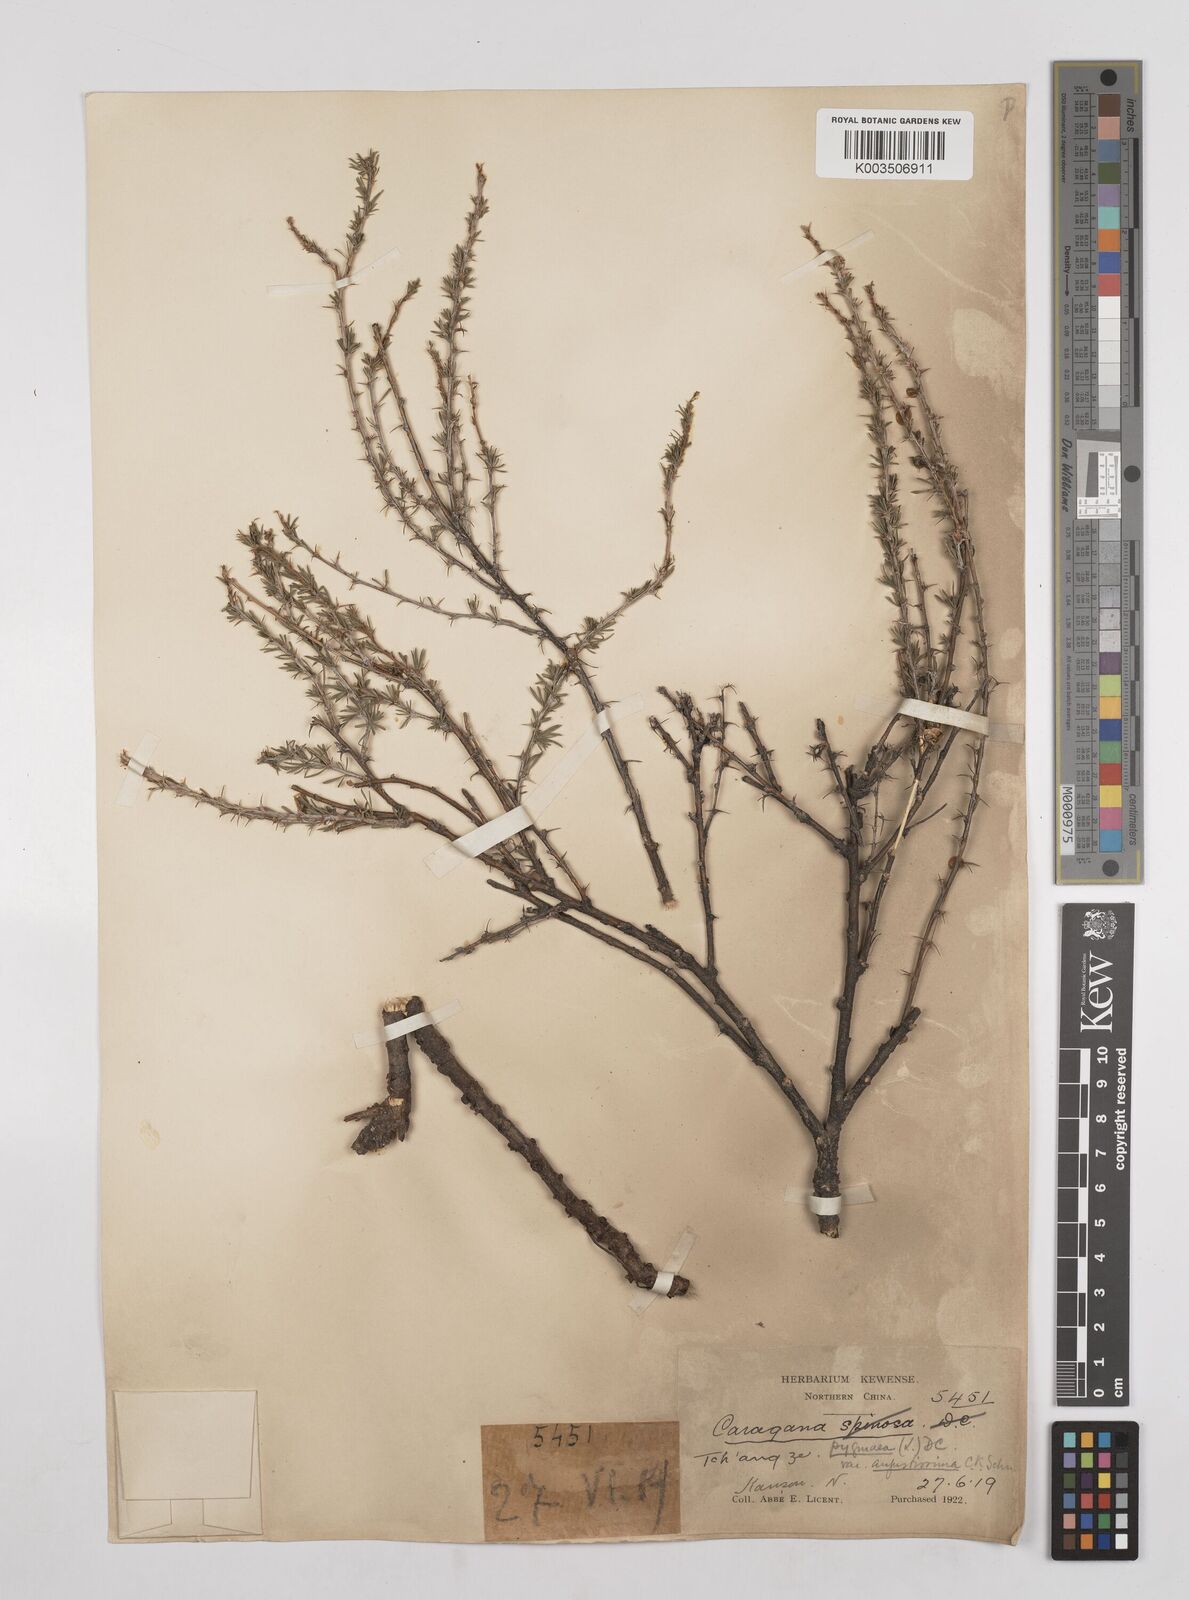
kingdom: Plantae
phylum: Tracheophyta
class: Magnoliopsida
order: Fabales
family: Fabaceae
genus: Caragana
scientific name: Caragana pygmaea
